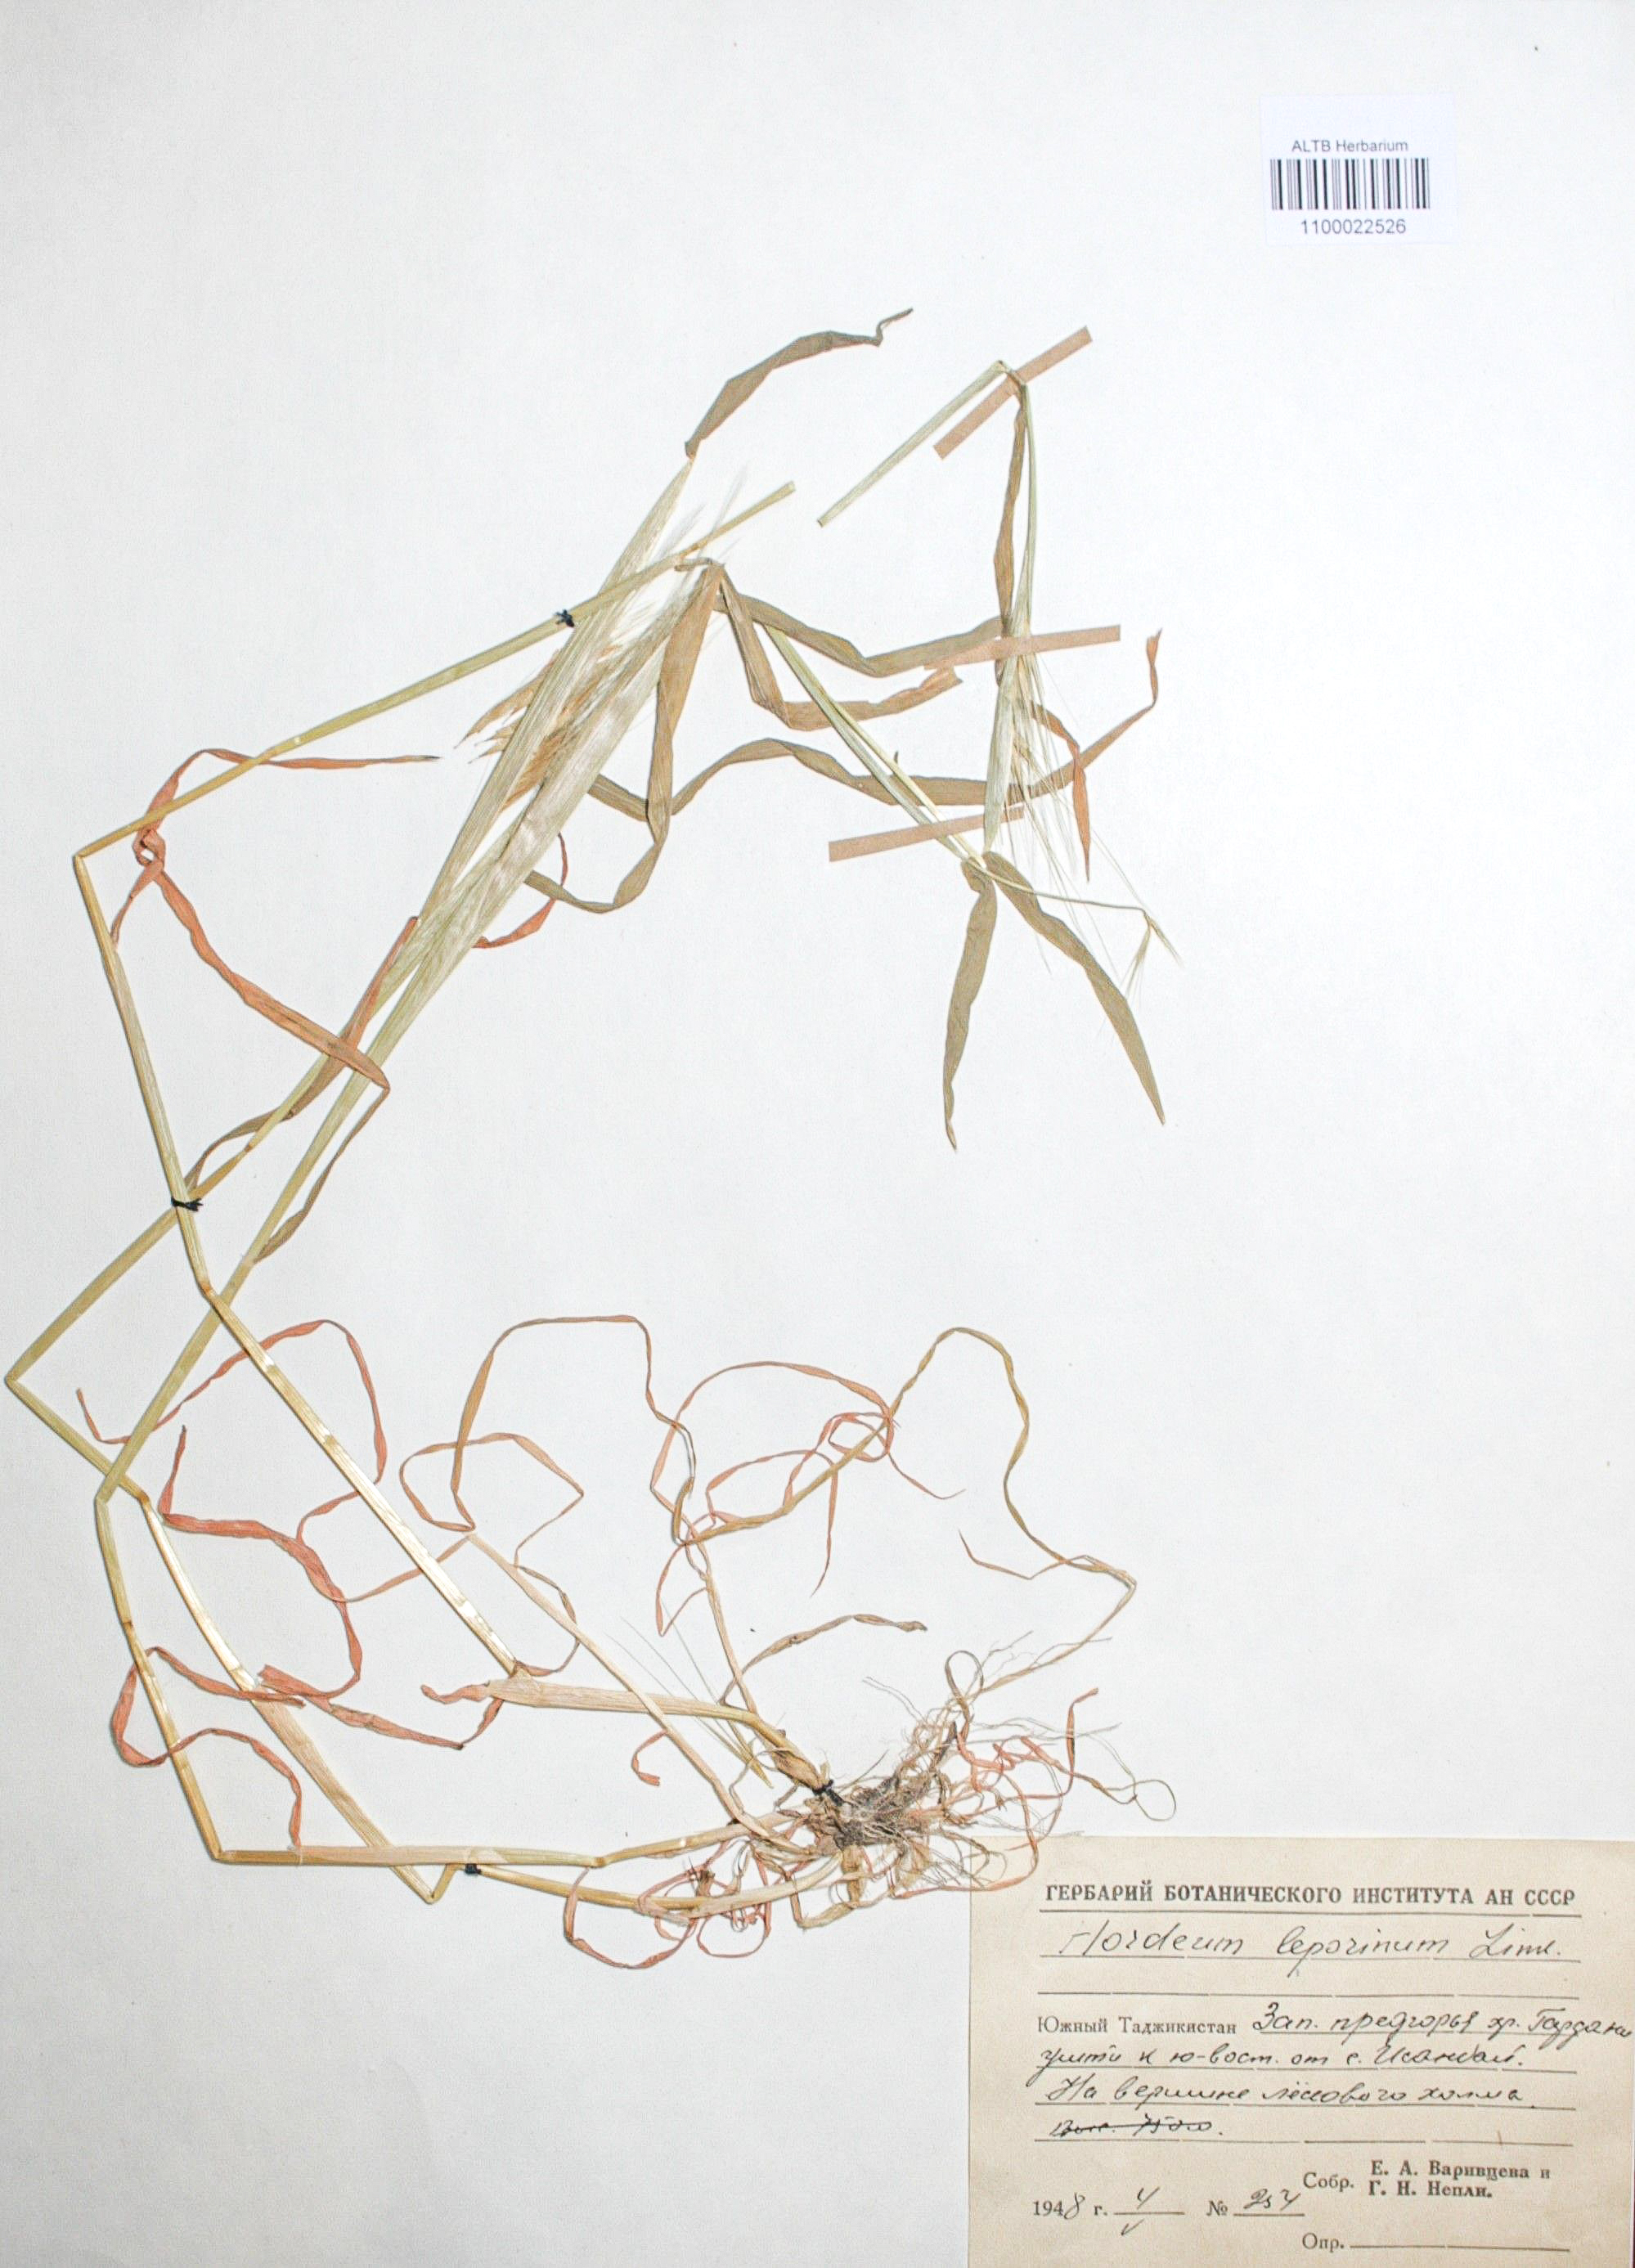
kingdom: Plantae
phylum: Tracheophyta
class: Liliopsida
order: Poales
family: Poaceae
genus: Hordeum
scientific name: Hordeum murinum
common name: Wall barley
